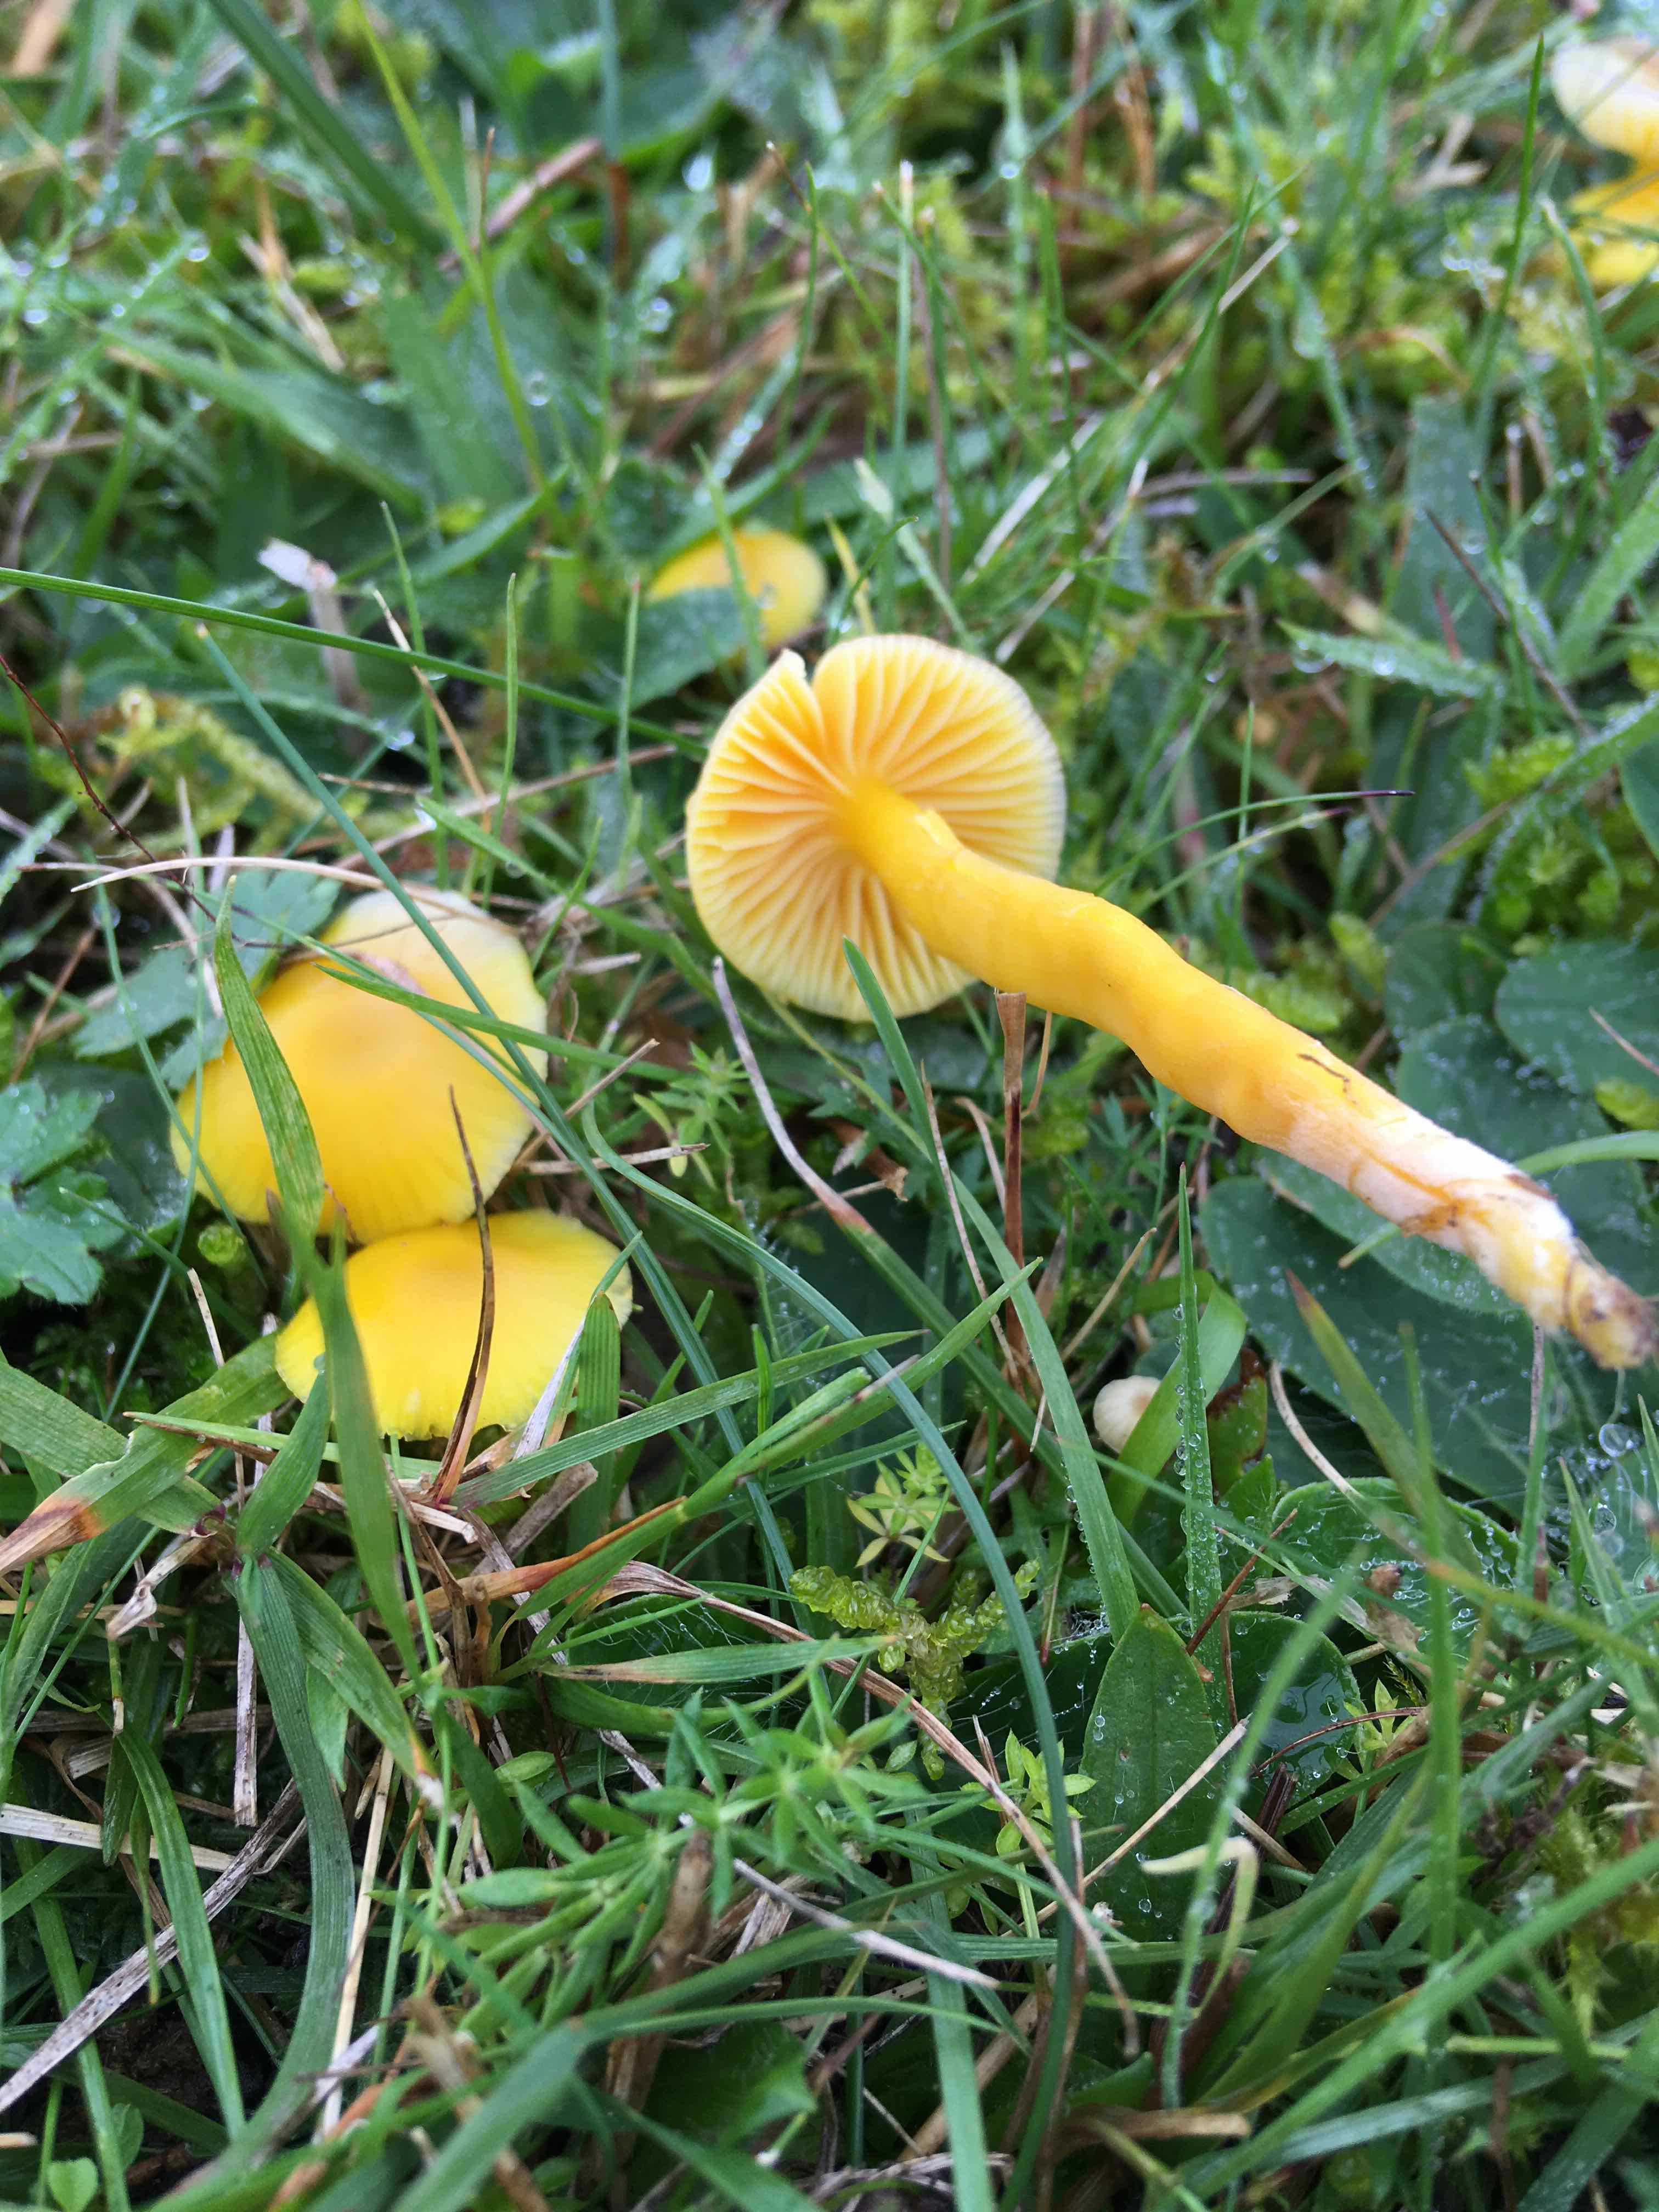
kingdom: Fungi
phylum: Basidiomycota
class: Agaricomycetes
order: Agaricales
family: Hygrophoraceae
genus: Hygrocybe
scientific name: Hygrocybe ceracea
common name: voksgul vokshat
